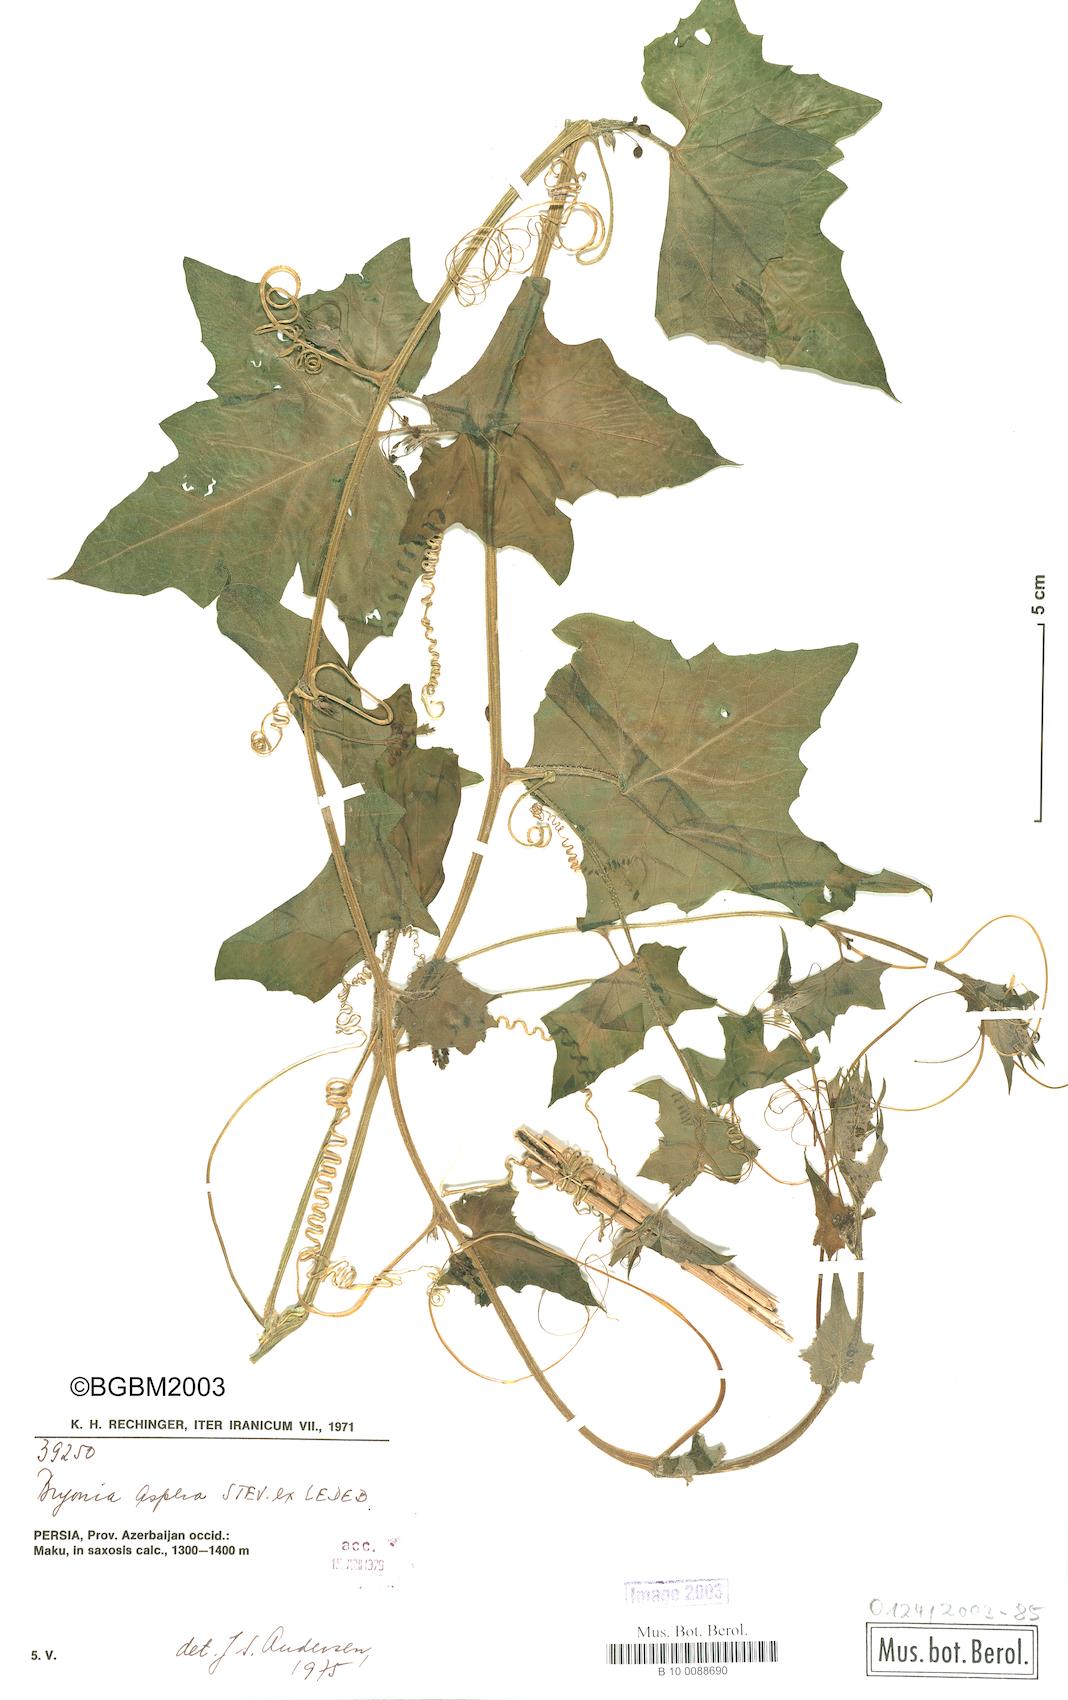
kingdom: Plantae
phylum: Tracheophyta
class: Magnoliopsida
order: Cucurbitales
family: Cucurbitaceae
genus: Bryonia
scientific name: Bryonia aspera
